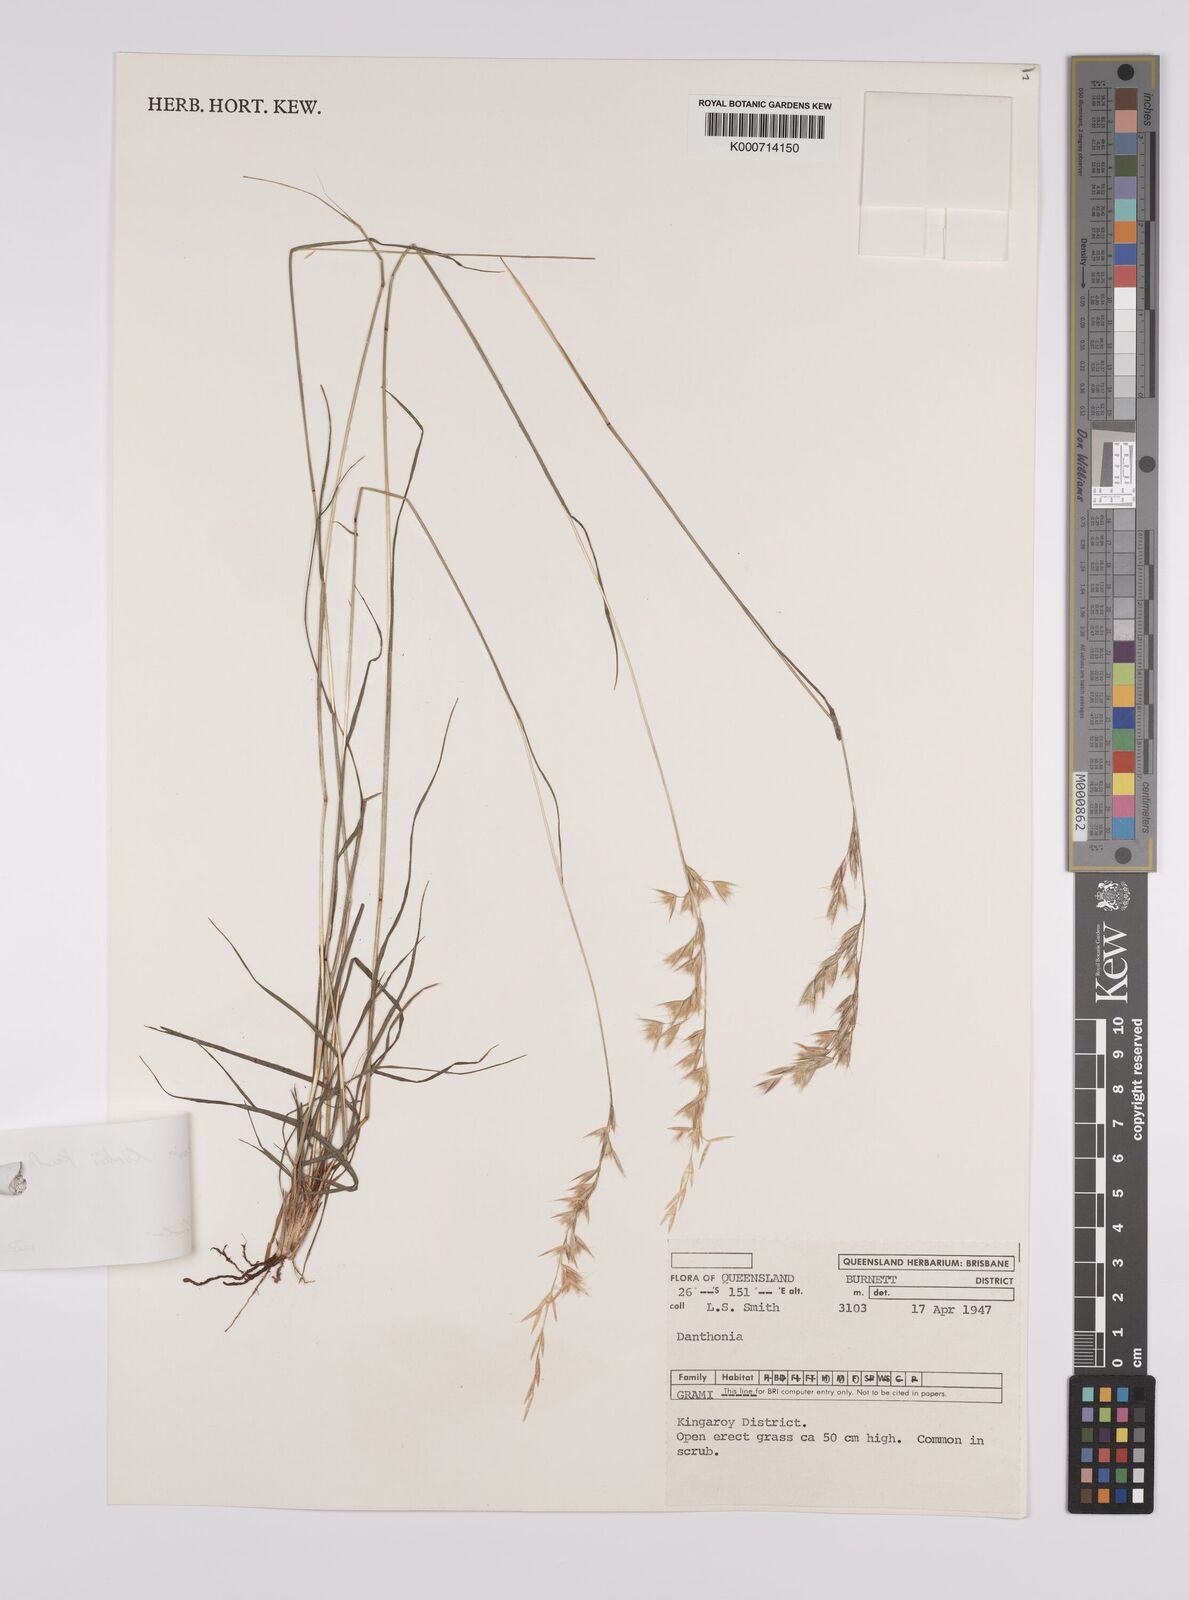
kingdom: Plantae
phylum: Tracheophyta
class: Liliopsida
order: Poales
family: Poaceae
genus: Rytidosperma
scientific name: Rytidosperma
